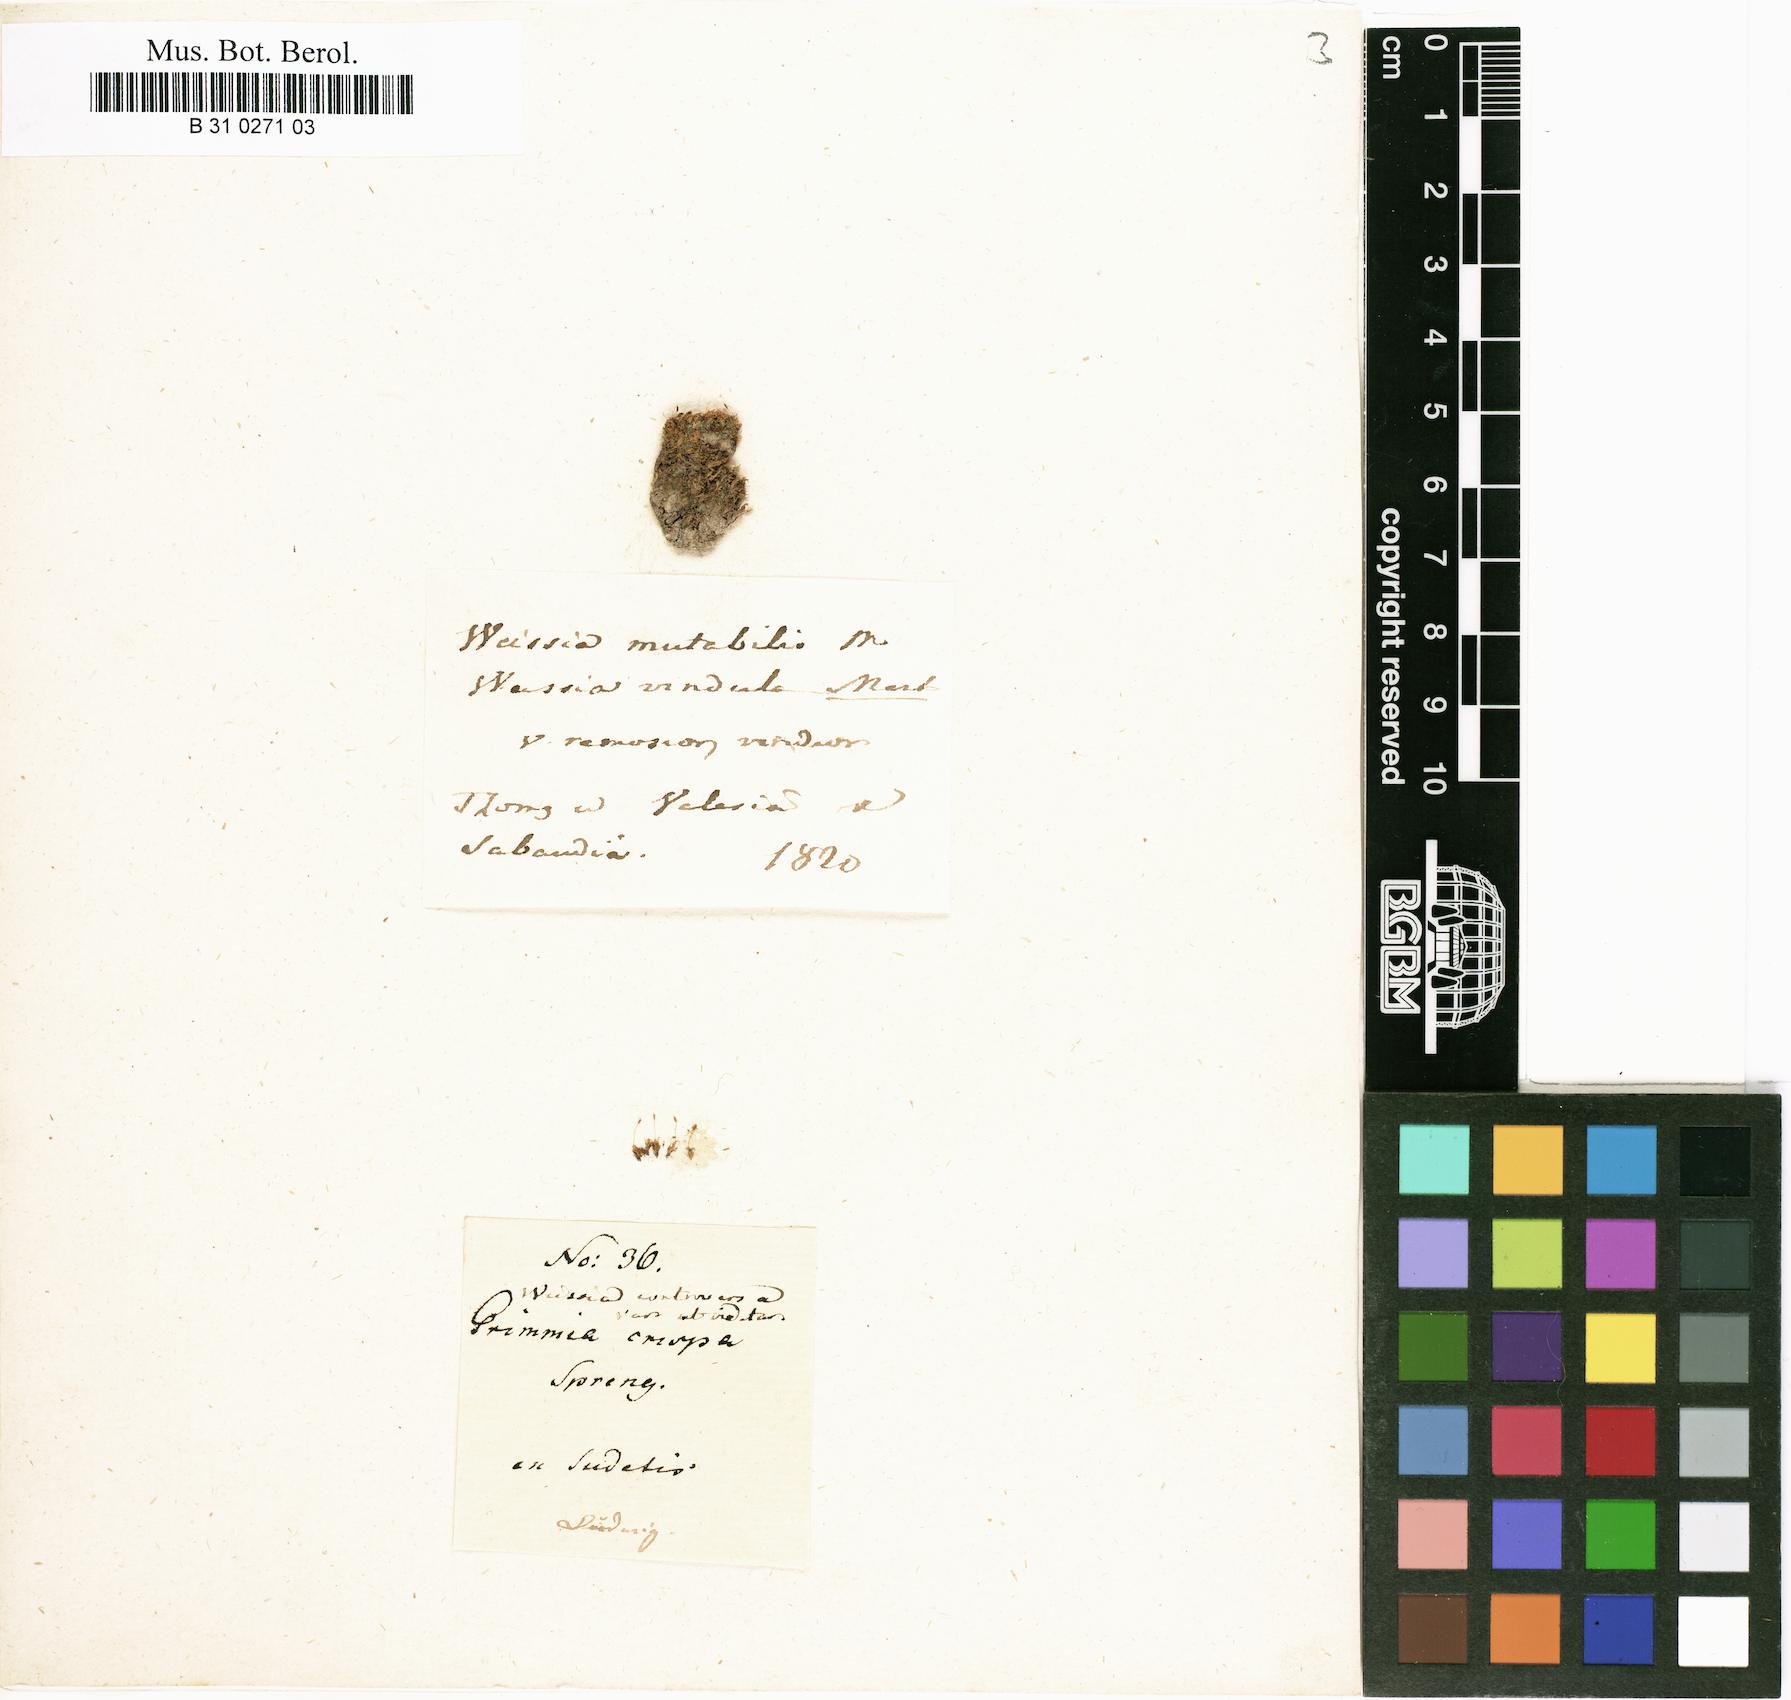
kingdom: Plantae
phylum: Bryophyta
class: Bryopsida
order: Pottiales
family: Pottiaceae
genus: Weissia
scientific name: Weissia controversa
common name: Green-tufted stubble moss
